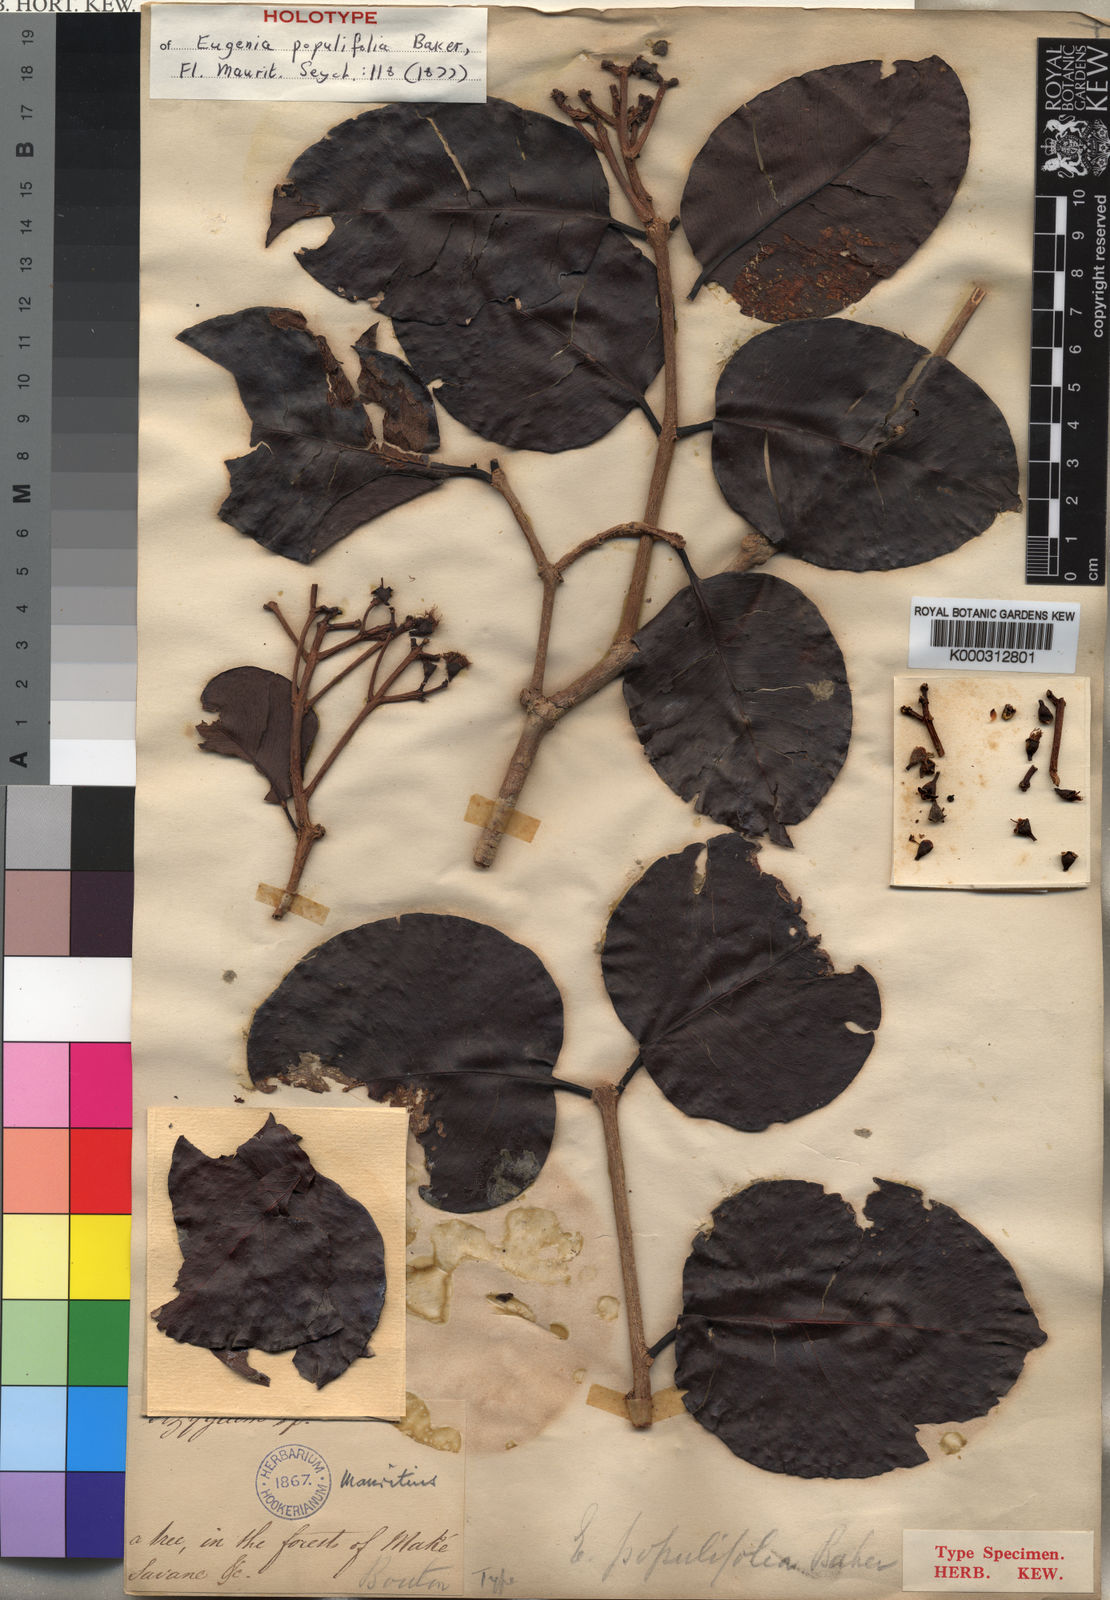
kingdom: Plantae
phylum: Tracheophyta
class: Magnoliopsida
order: Myrtales
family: Myrtaceae
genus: Syzygium
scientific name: Syzygium populifolium
